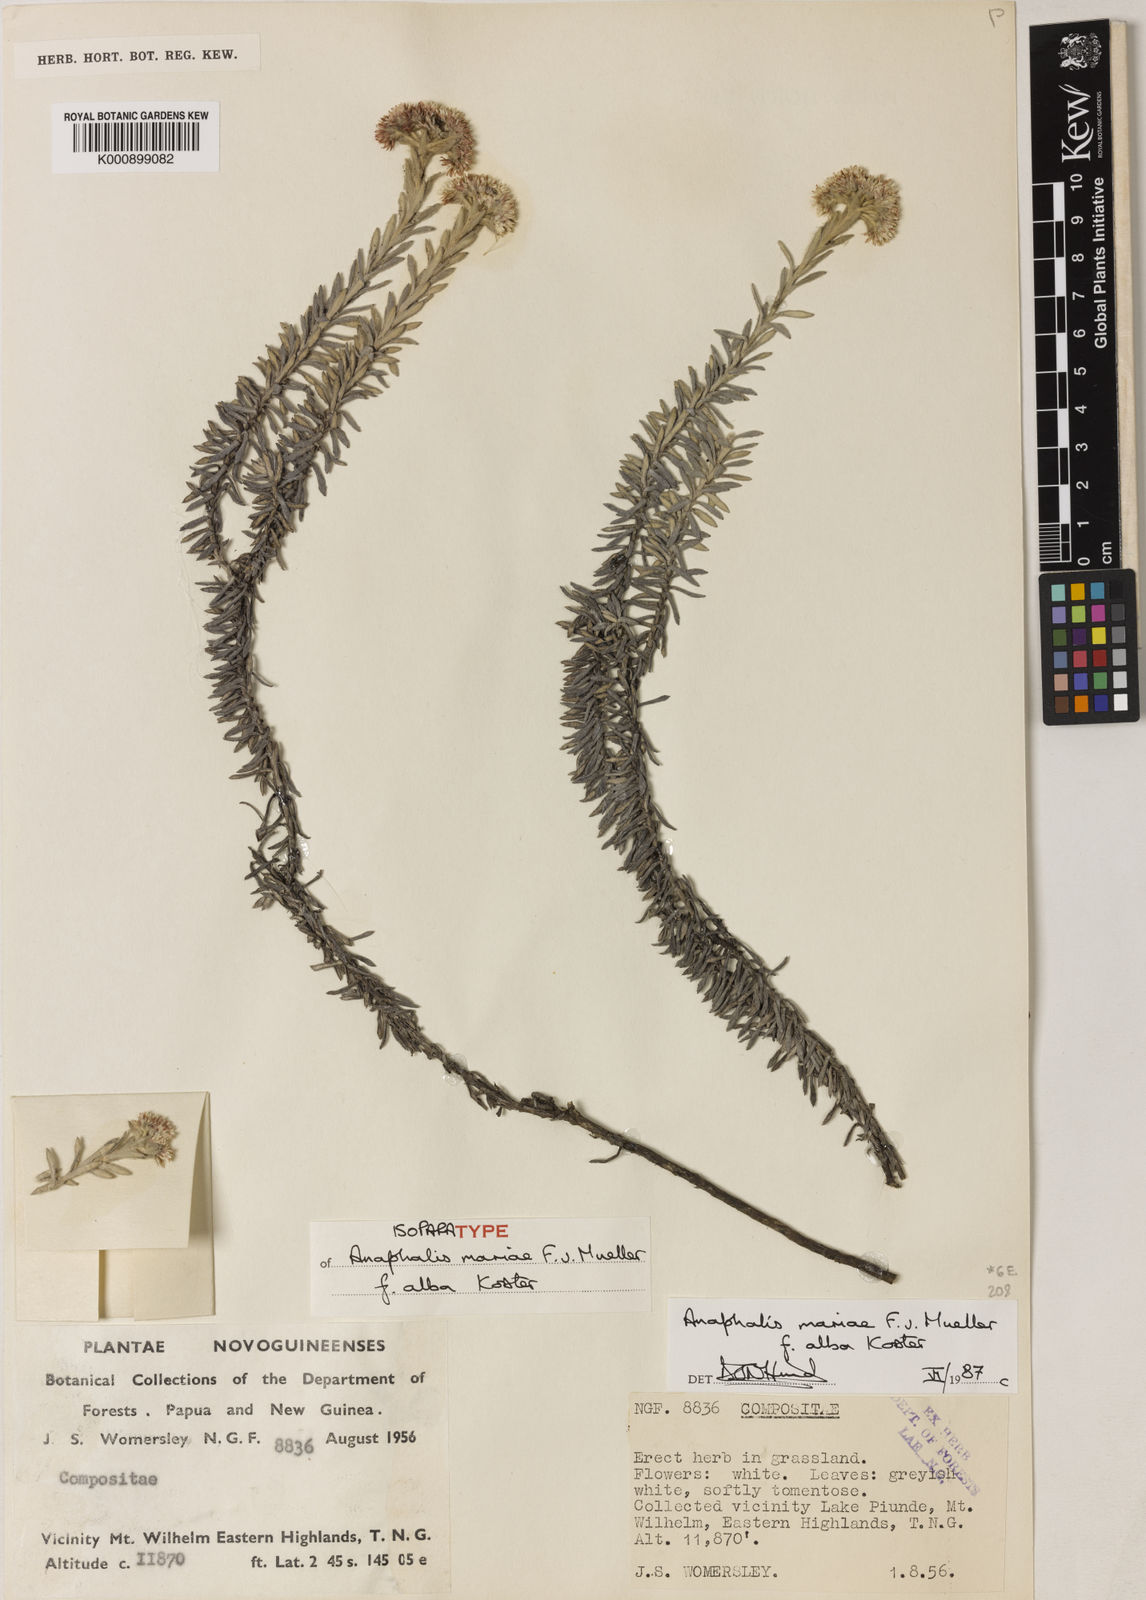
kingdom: Plantae
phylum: Tracheophyta
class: Magnoliopsida
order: Asterales
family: Asteraceae
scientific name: Asteraceae
